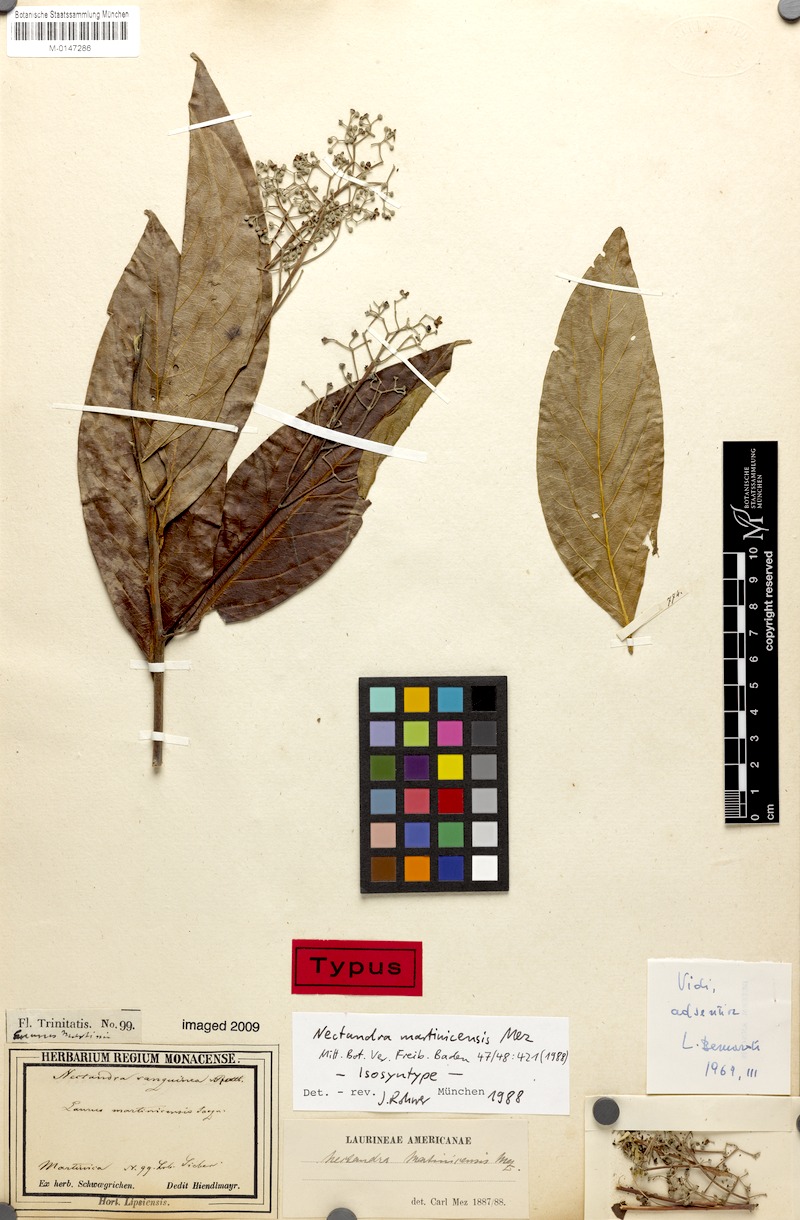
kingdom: Plantae
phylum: Tracheophyta
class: Magnoliopsida
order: Laurales
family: Lauraceae
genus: Damburneya
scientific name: Damburneya martinicensis
